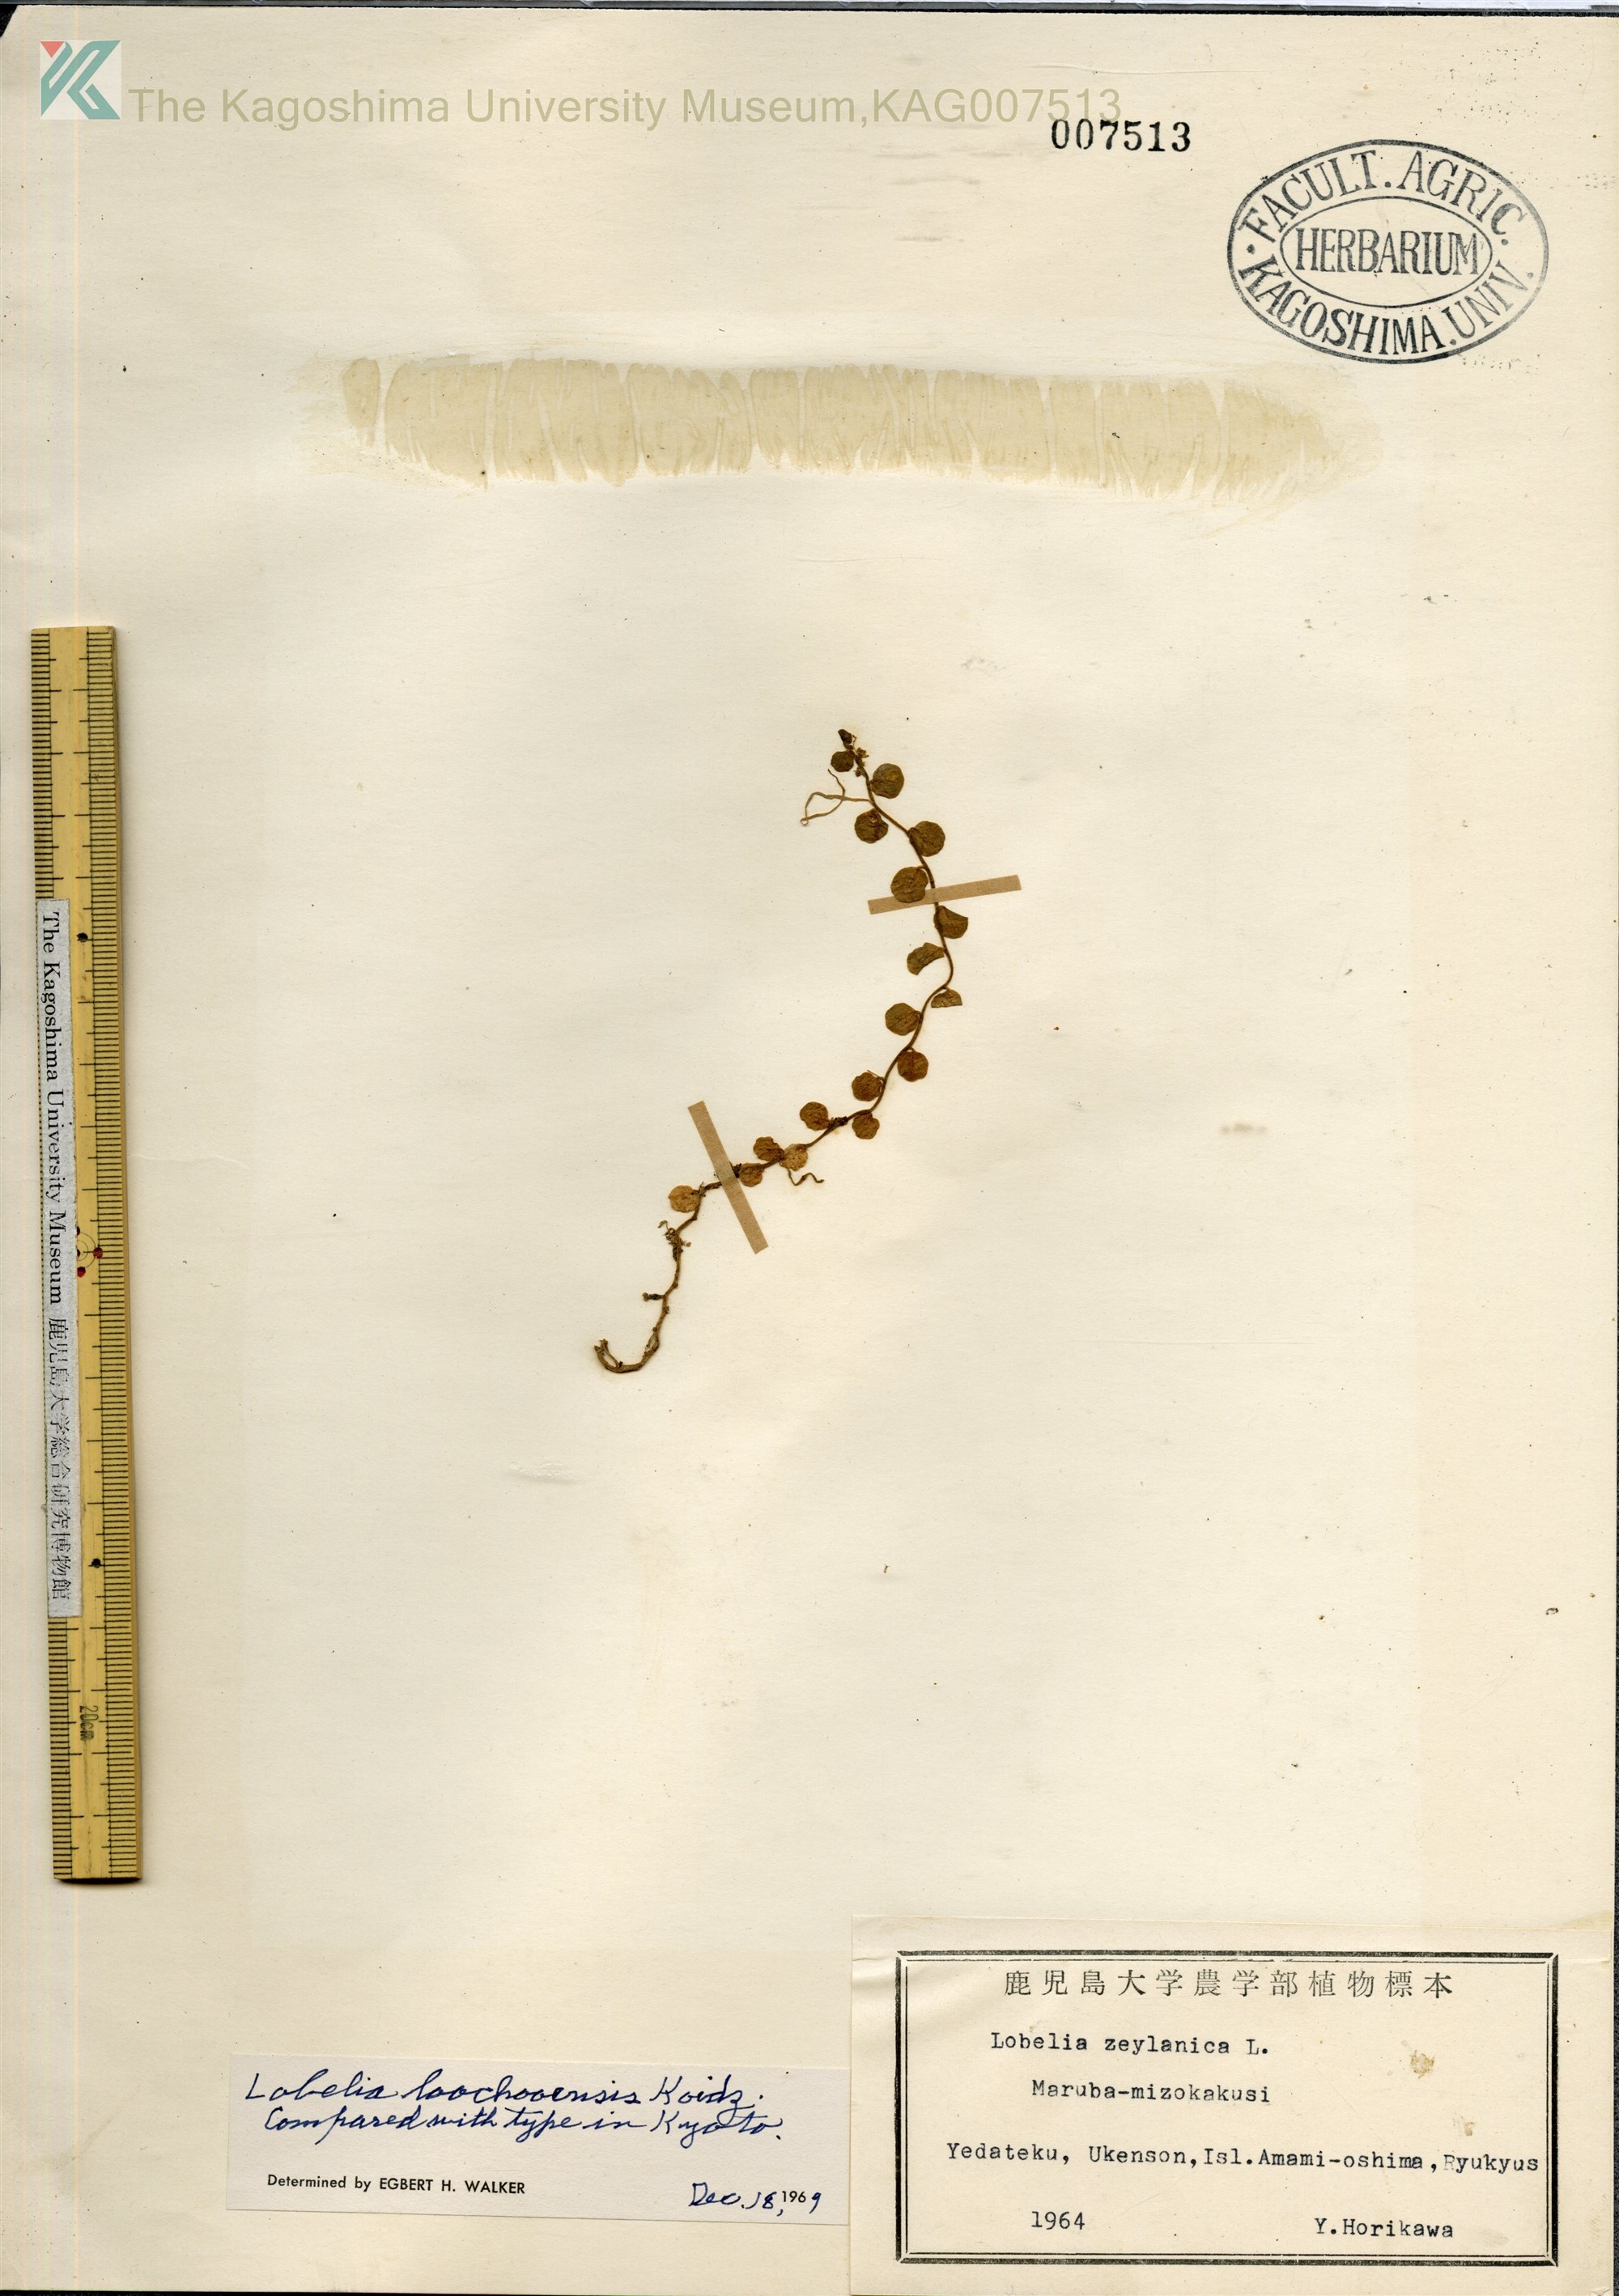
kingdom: Plantae
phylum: Tracheophyta
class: Magnoliopsida
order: Asterales
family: Campanulaceae
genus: Lobelia
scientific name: Lobelia loochooensis
